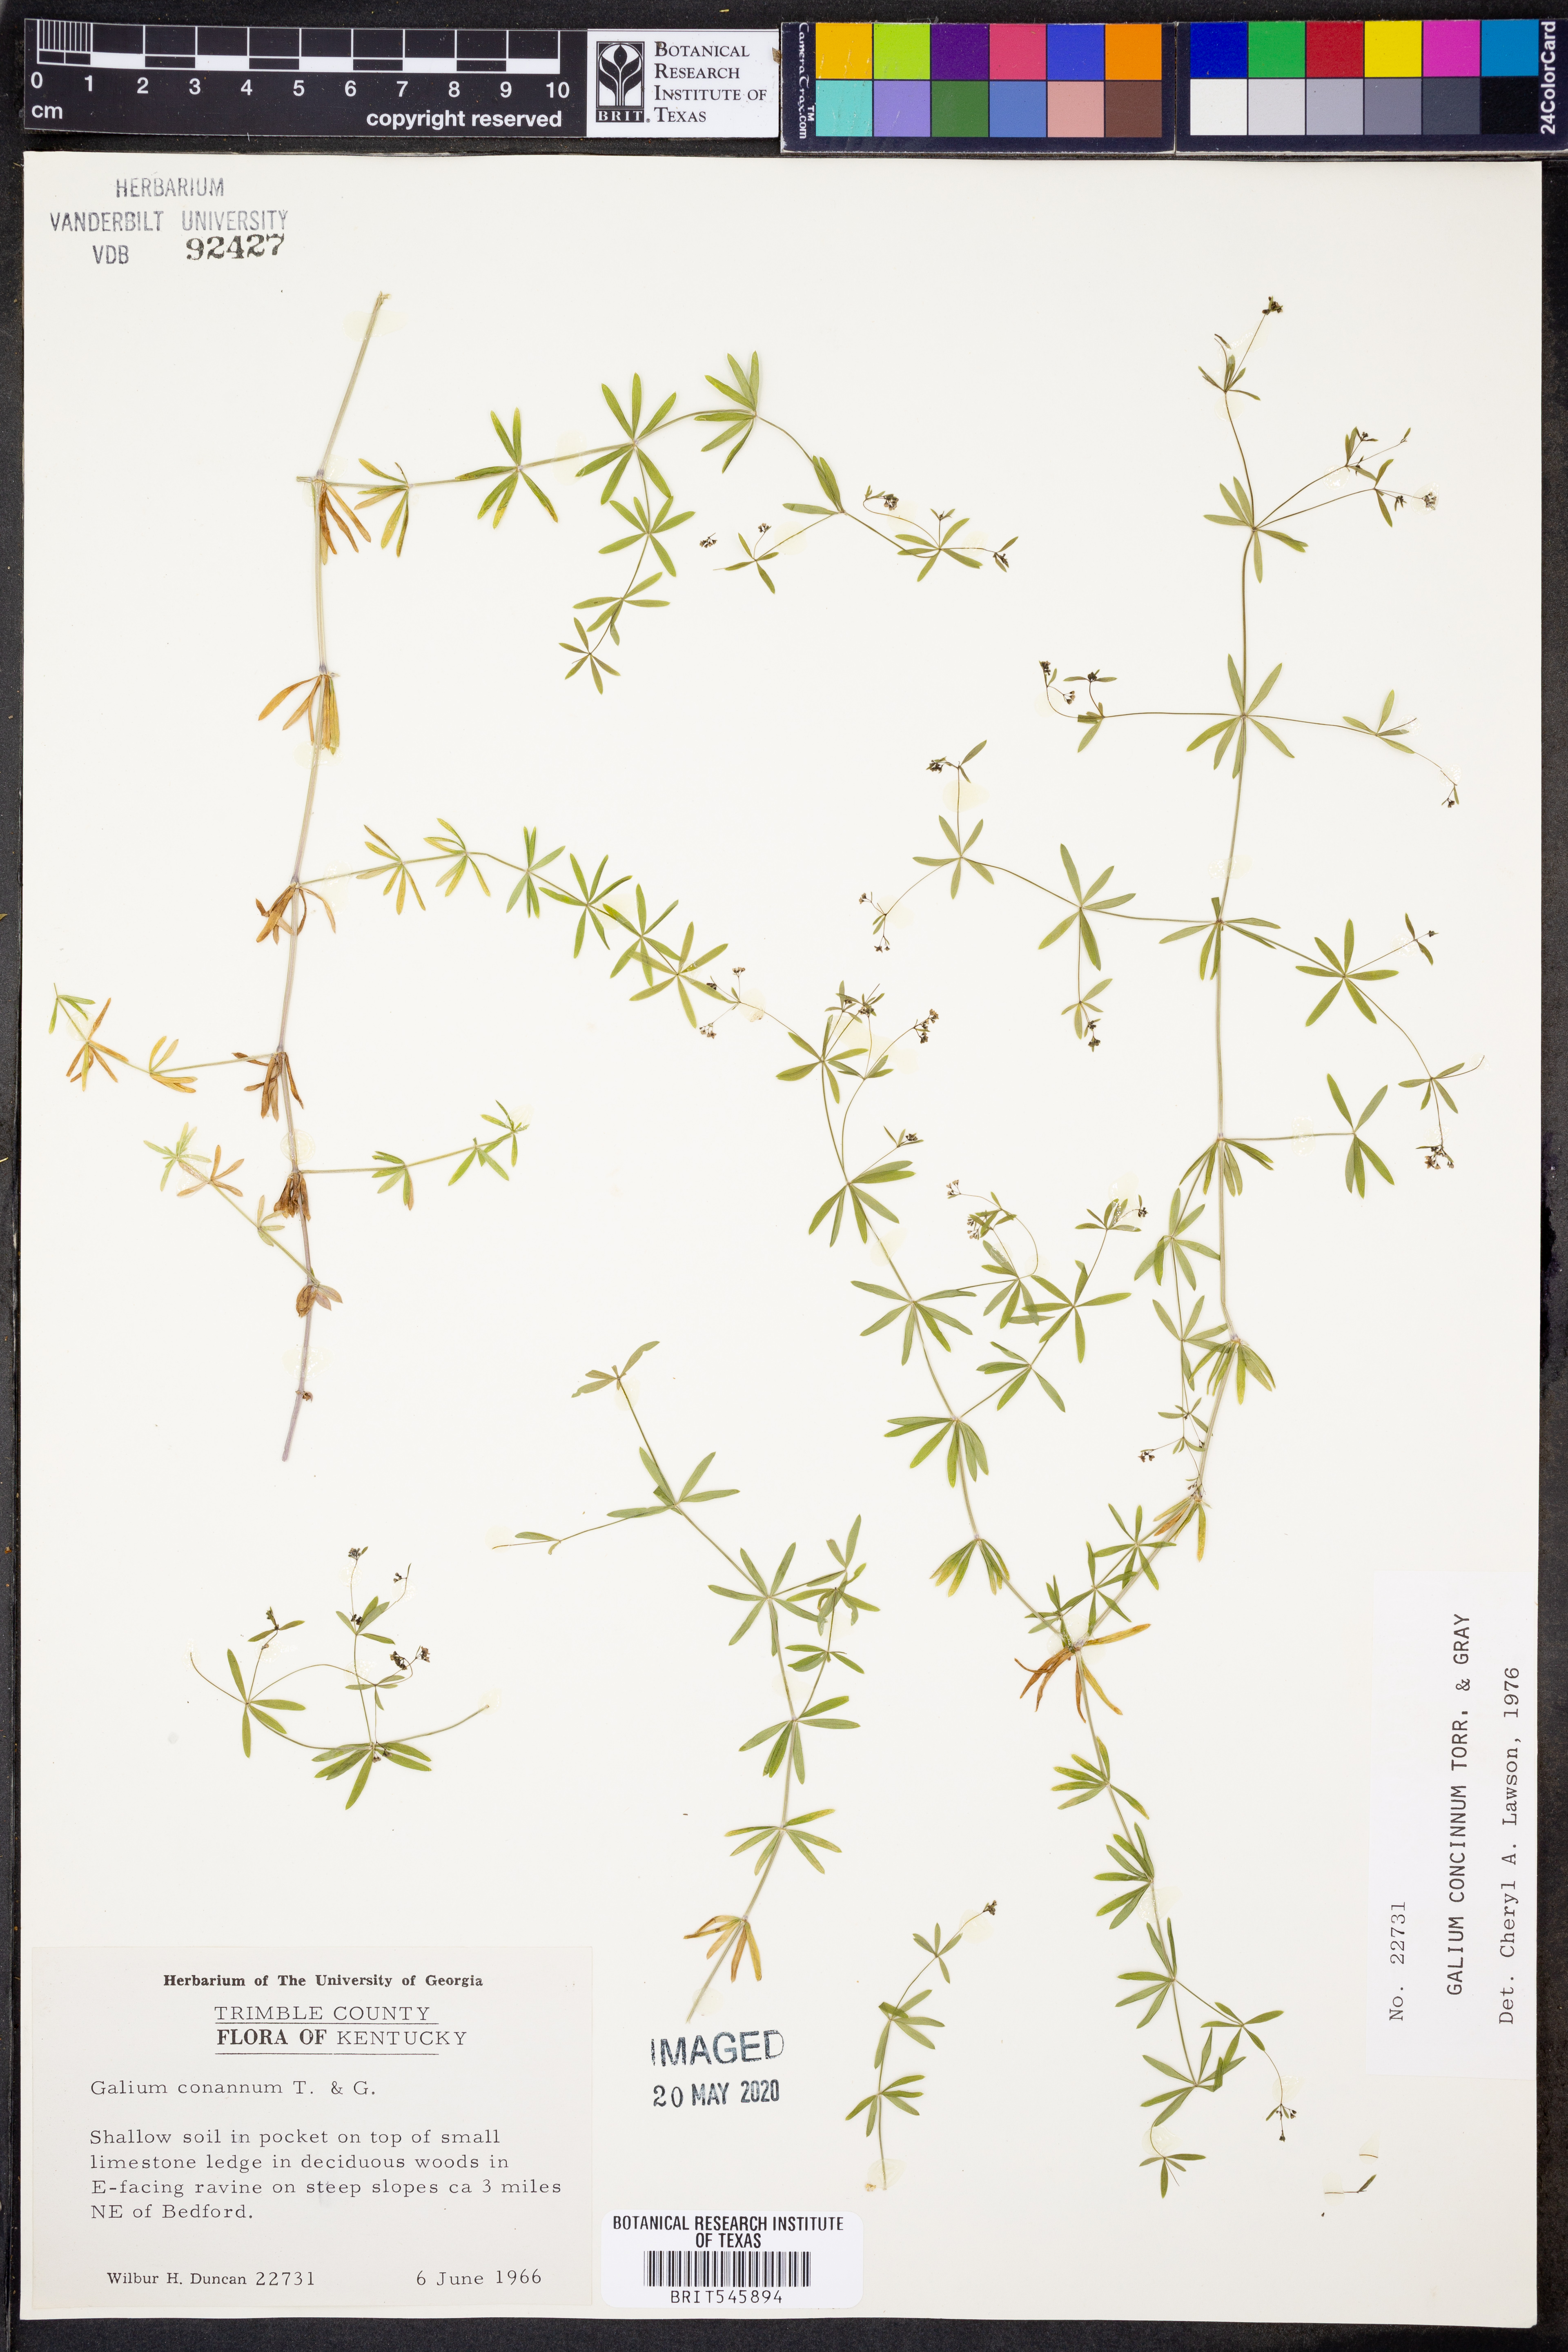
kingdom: Plantae
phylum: Tracheophyta
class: Magnoliopsida
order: Gentianales
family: Rubiaceae
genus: Galium
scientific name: Galium concinnum
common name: Shining bedstraw
